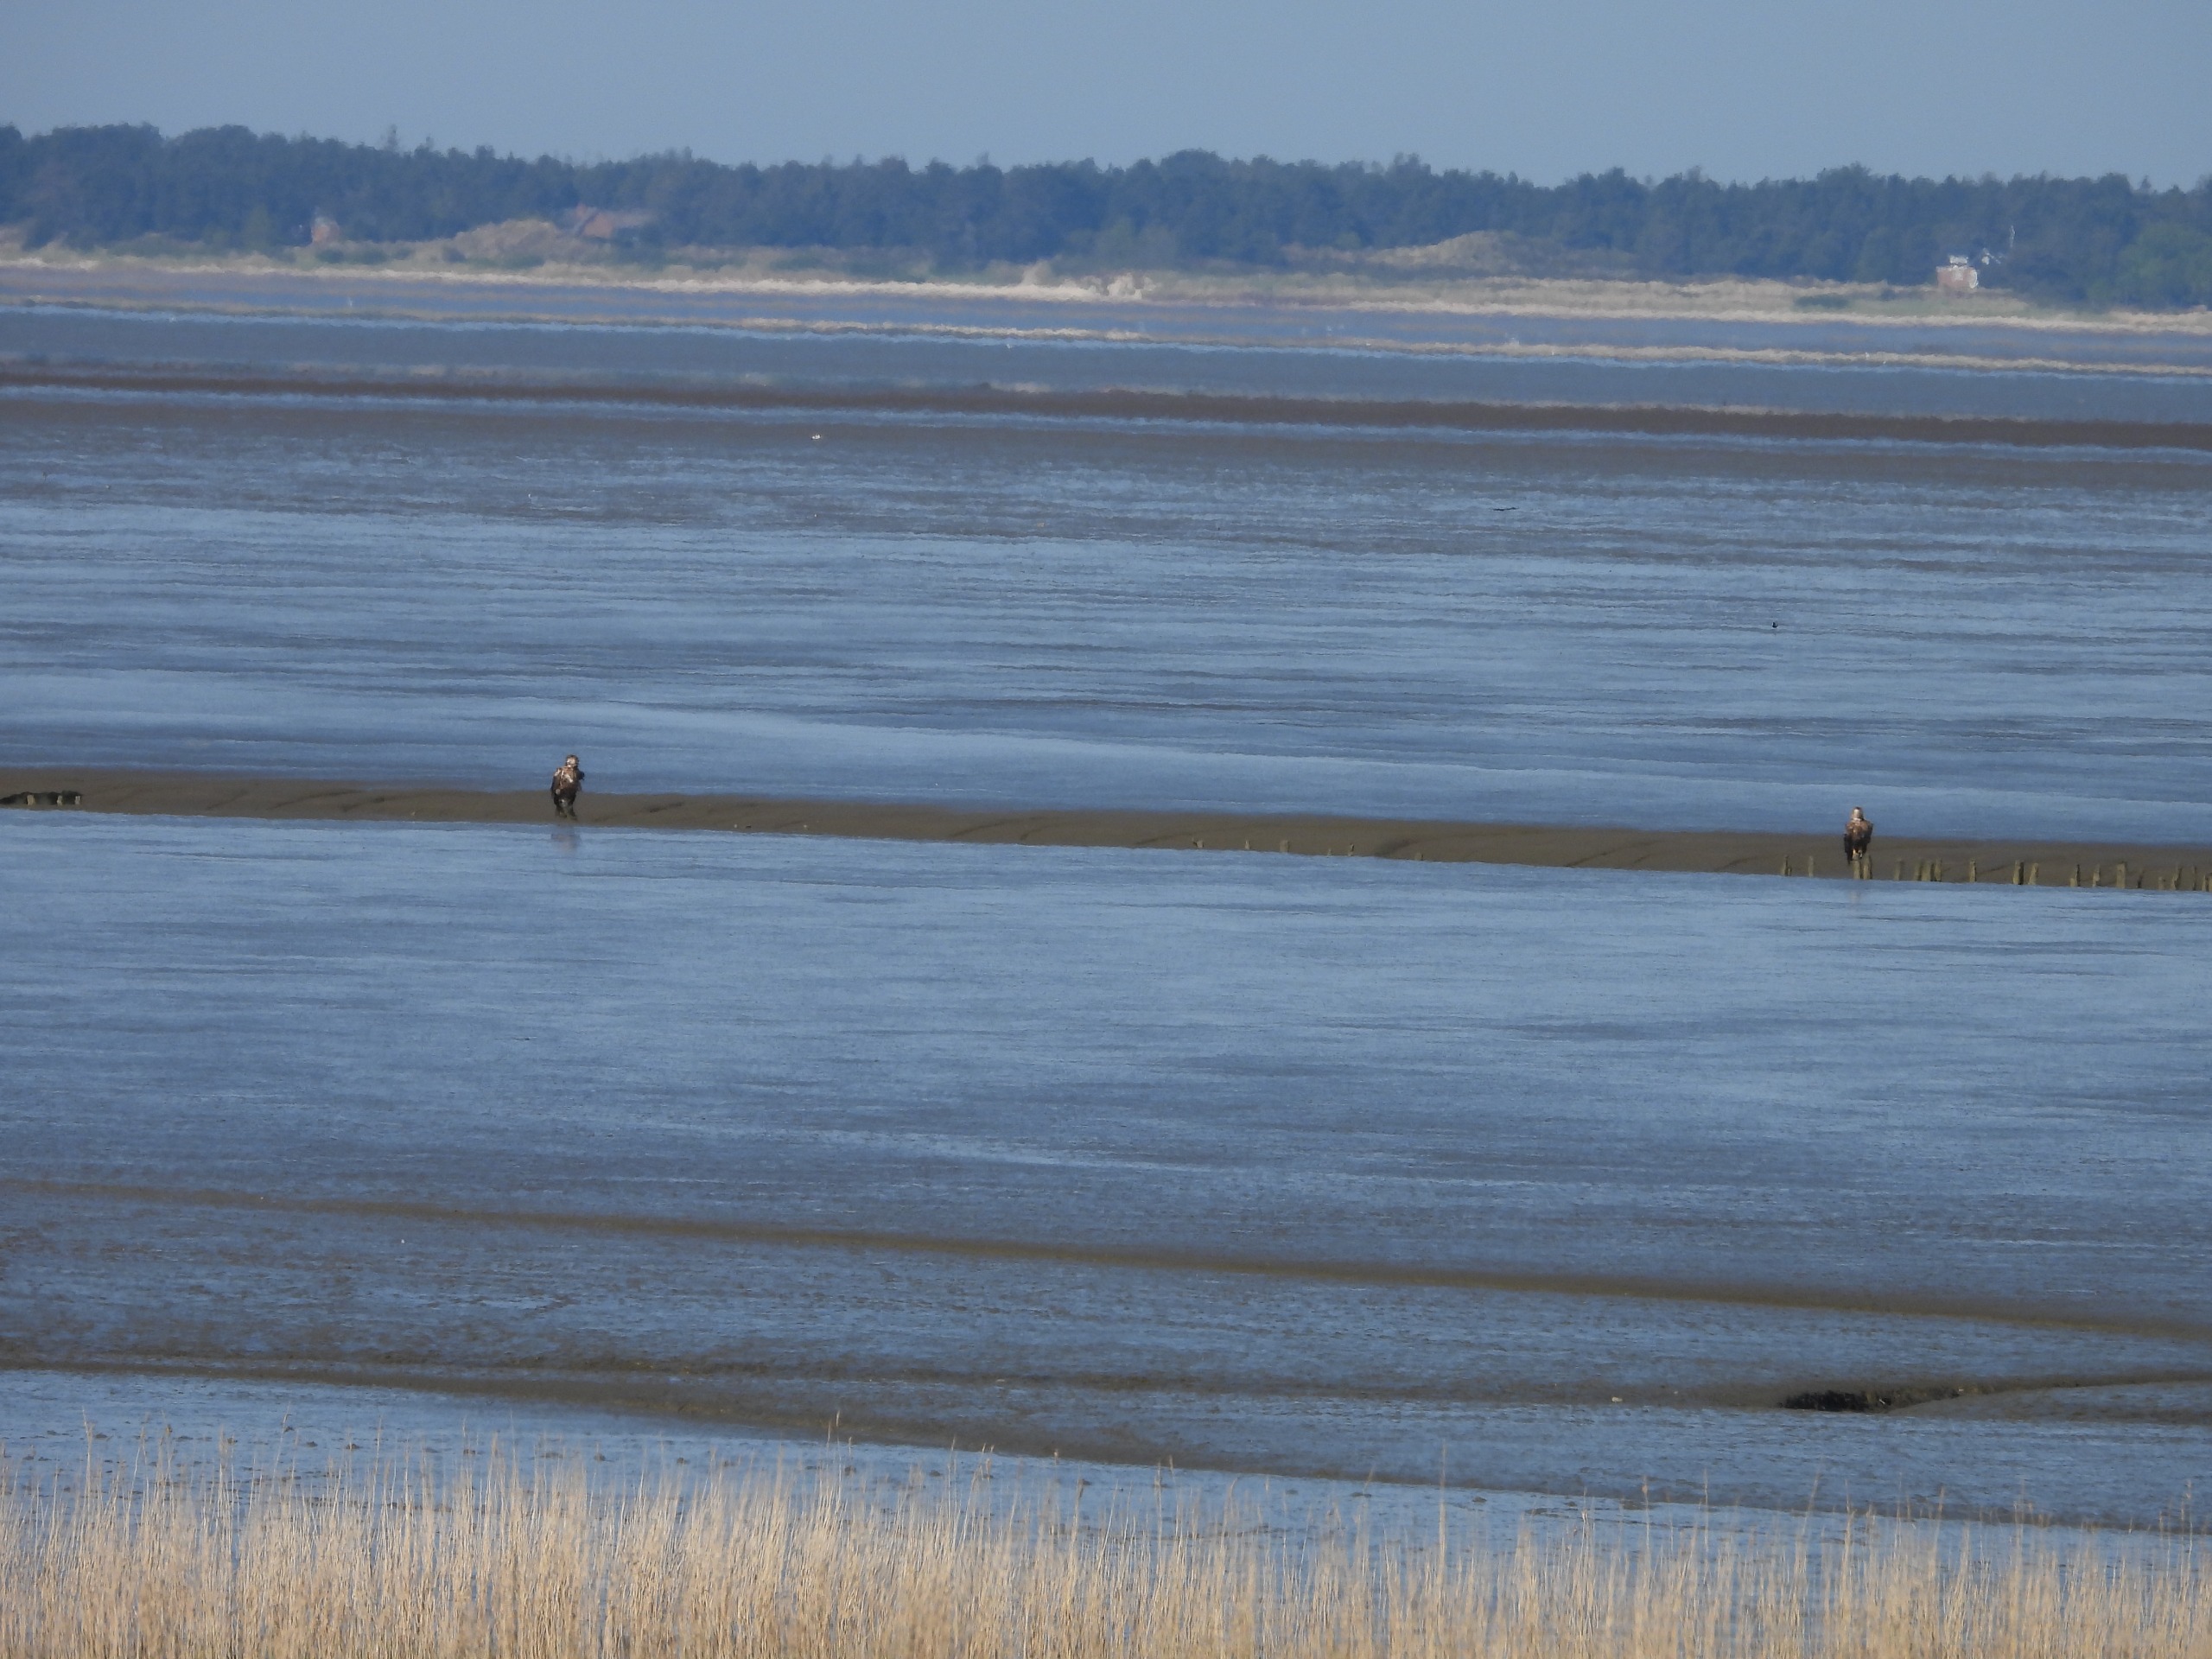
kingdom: Animalia
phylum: Chordata
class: Aves
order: Accipitriformes
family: Accipitridae
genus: Haliaeetus
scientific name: Haliaeetus albicilla
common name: Havørn
